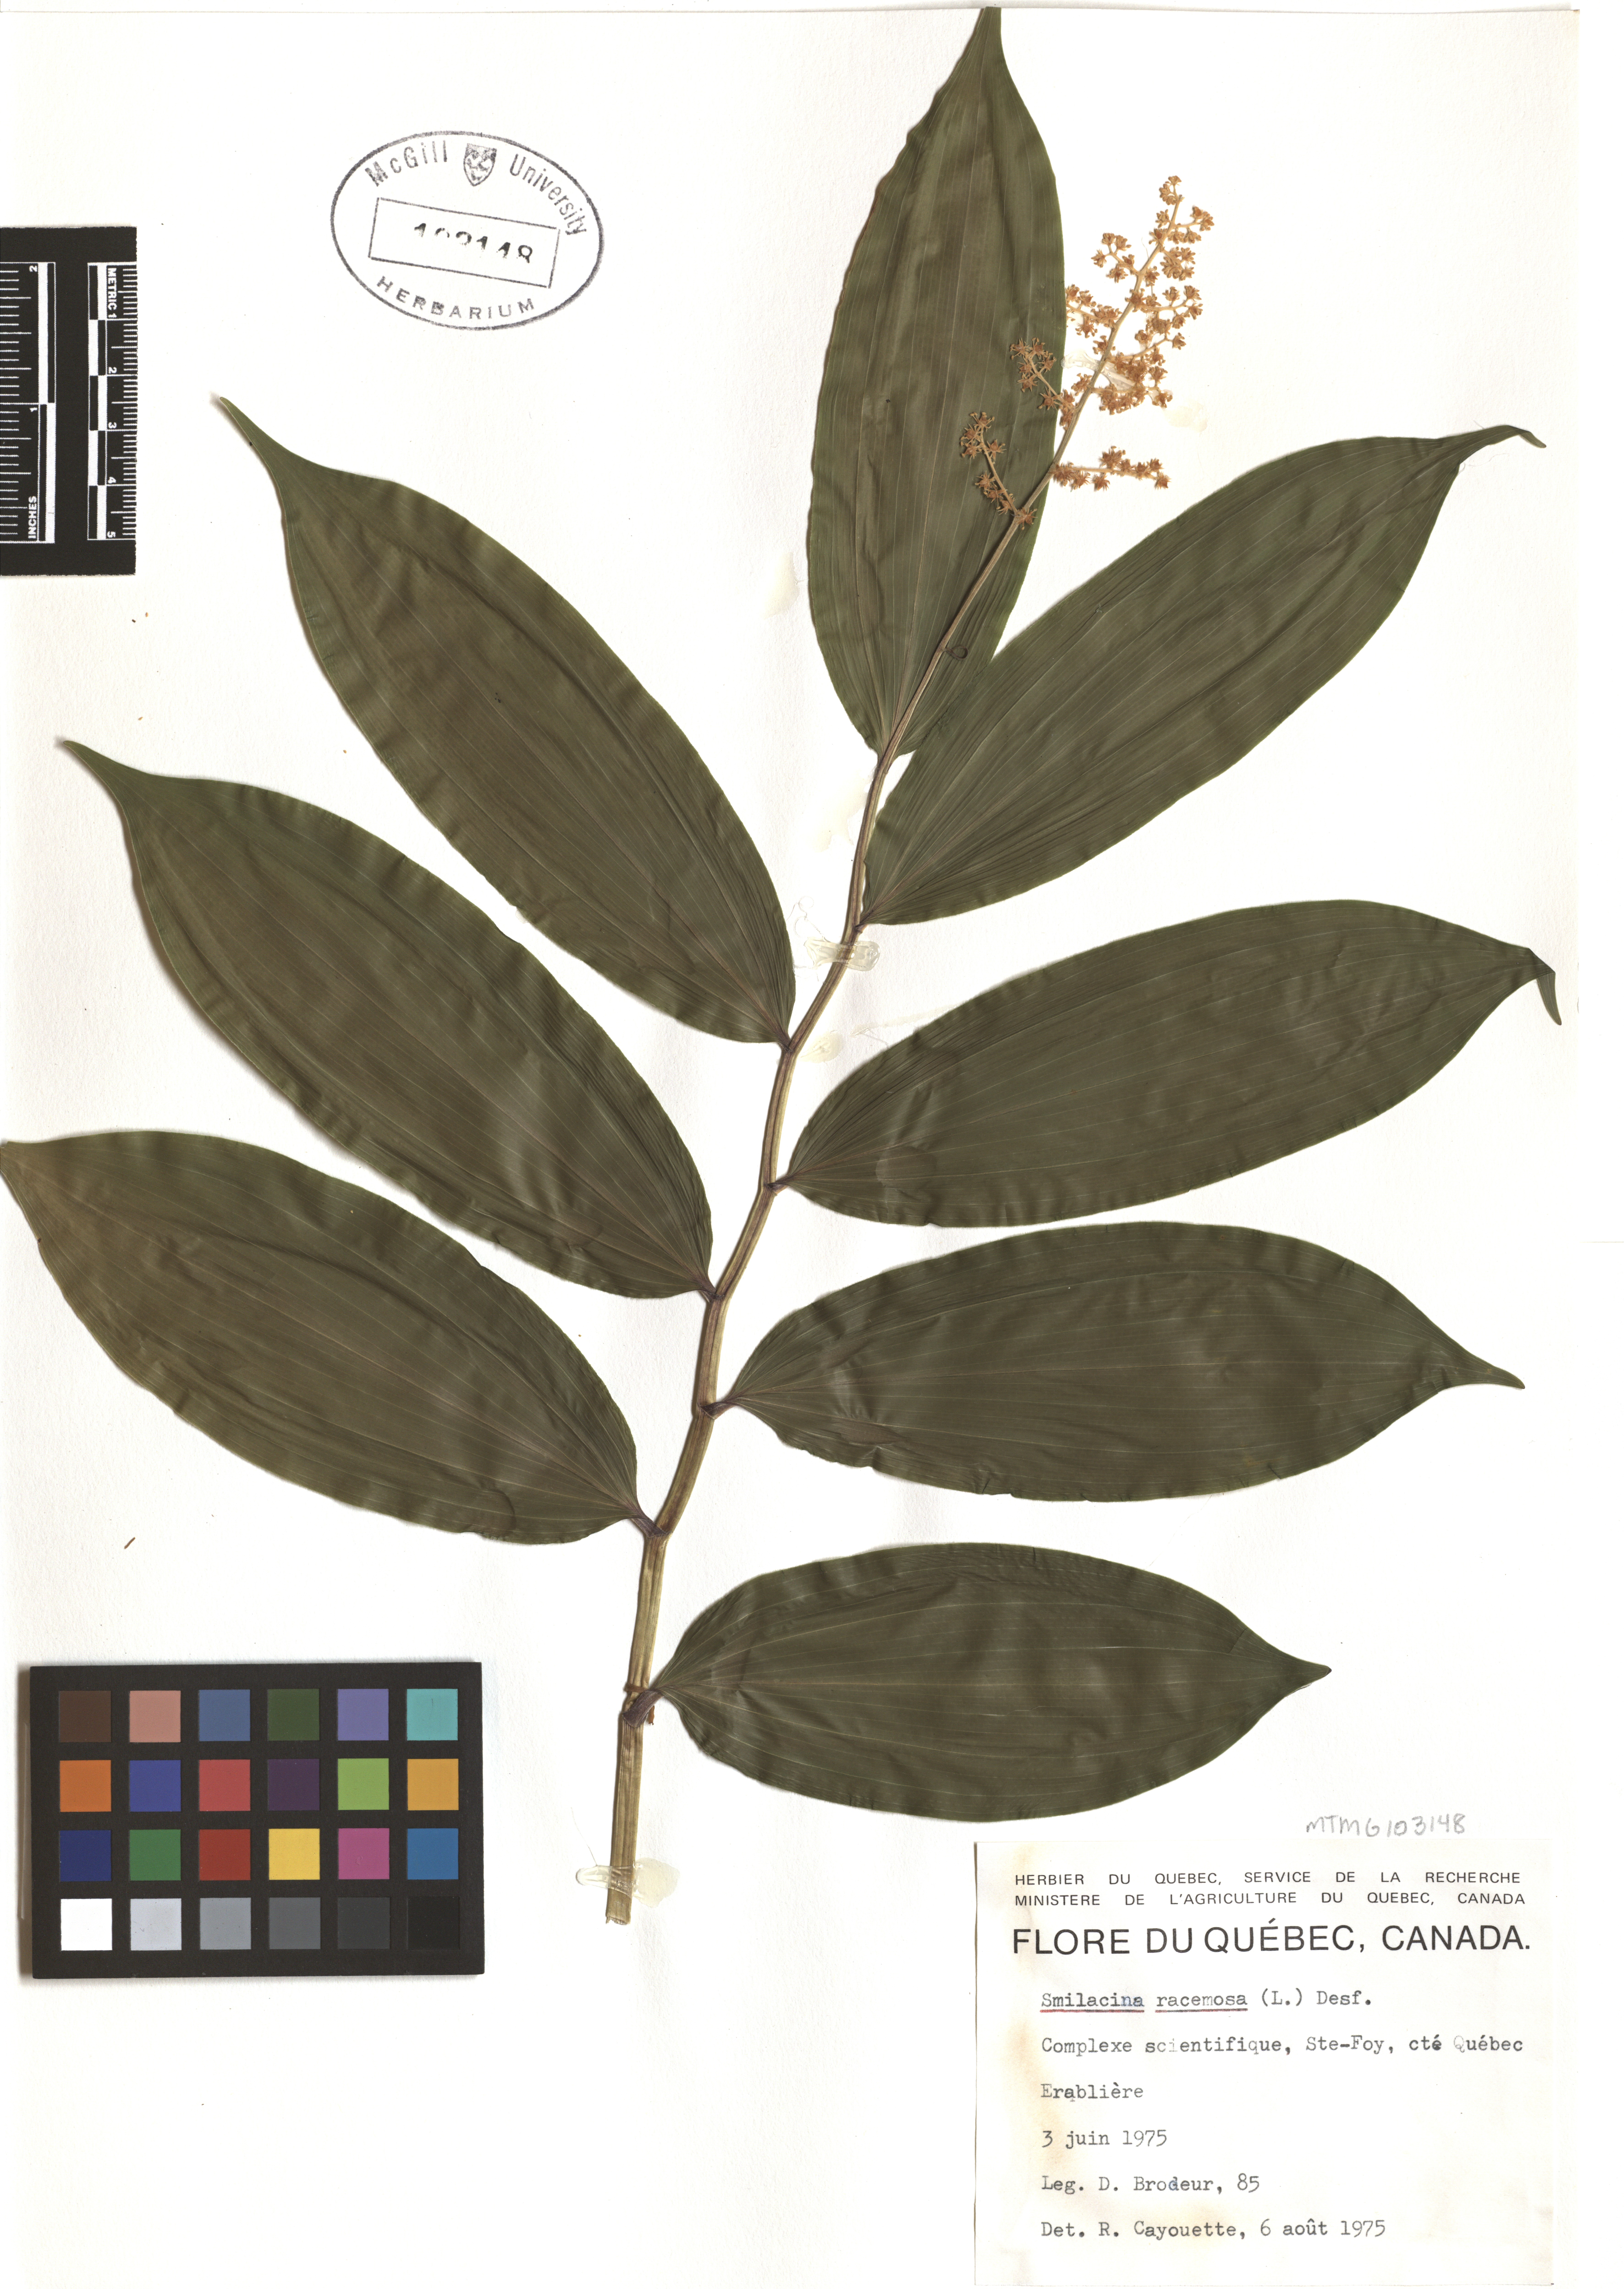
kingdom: Plantae
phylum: Tracheophyta
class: Liliopsida
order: Asparagales
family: Asparagaceae
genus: Maianthemum
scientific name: Maianthemum racemosum
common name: False spikenard
